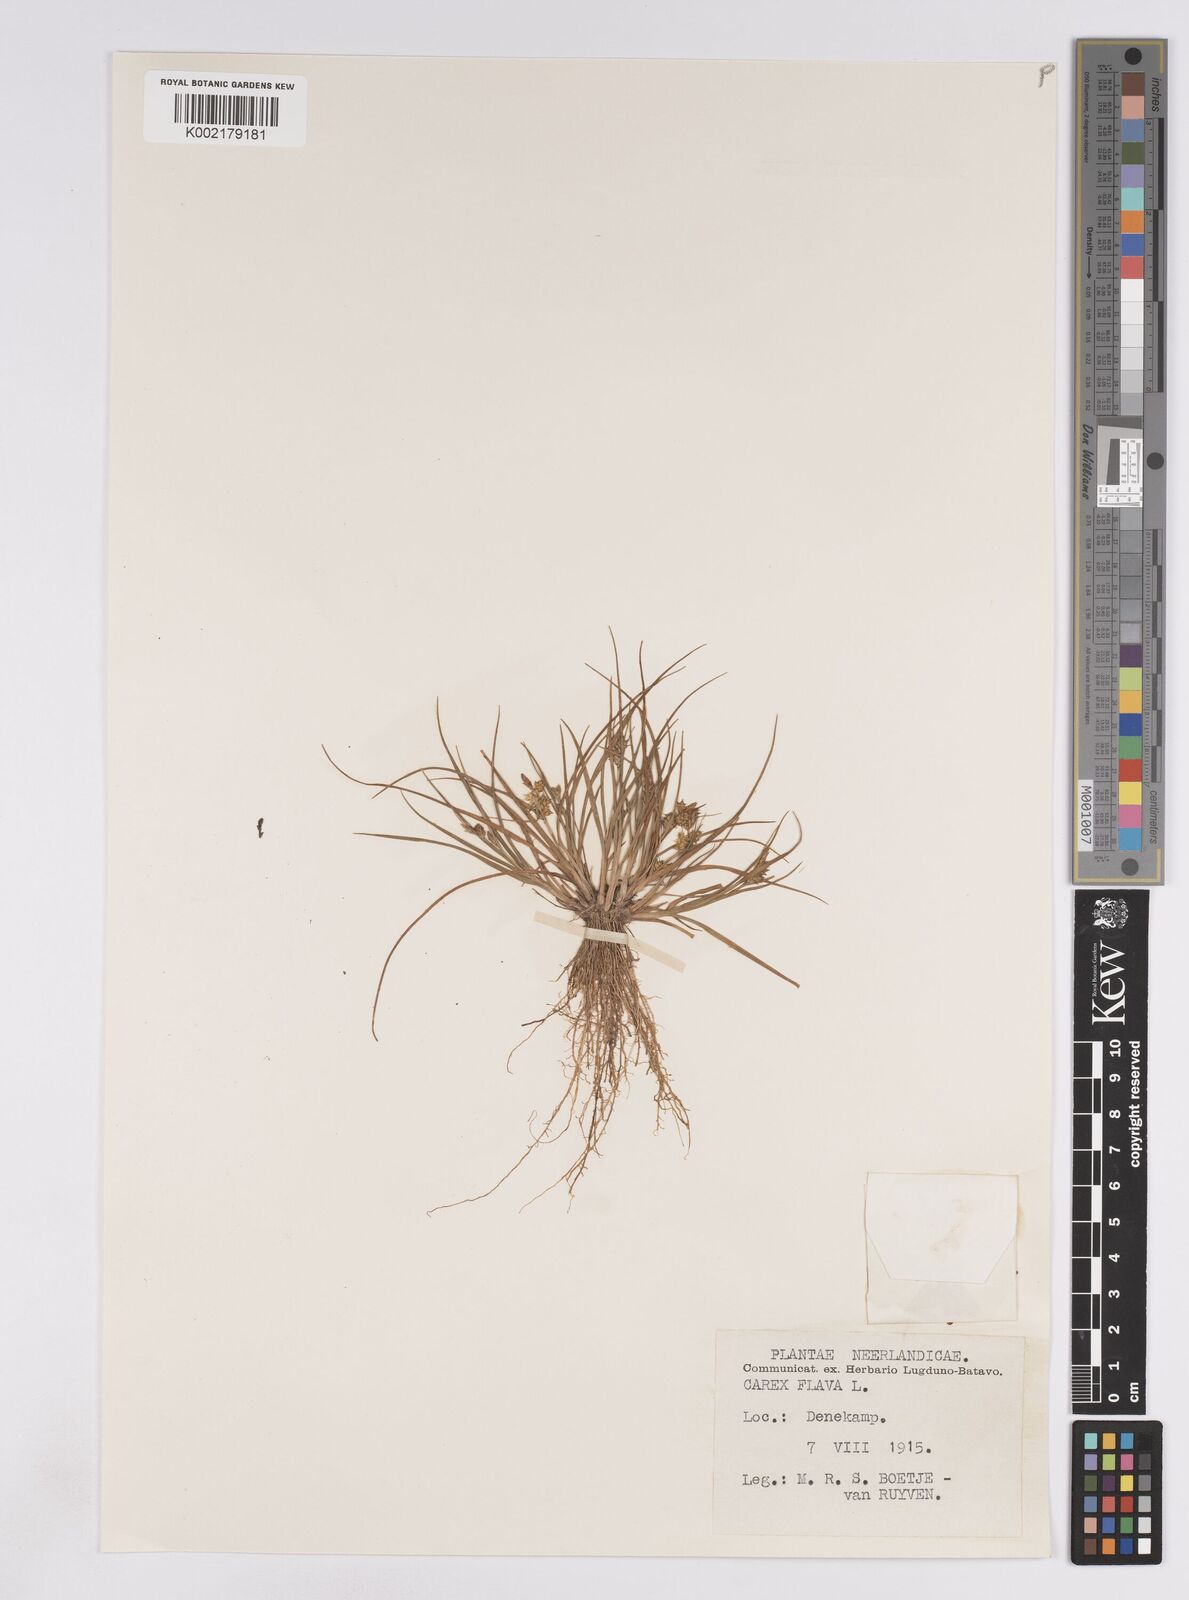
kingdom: Plantae
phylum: Tracheophyta
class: Liliopsida
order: Poales
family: Cyperaceae
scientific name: Cyperaceae
